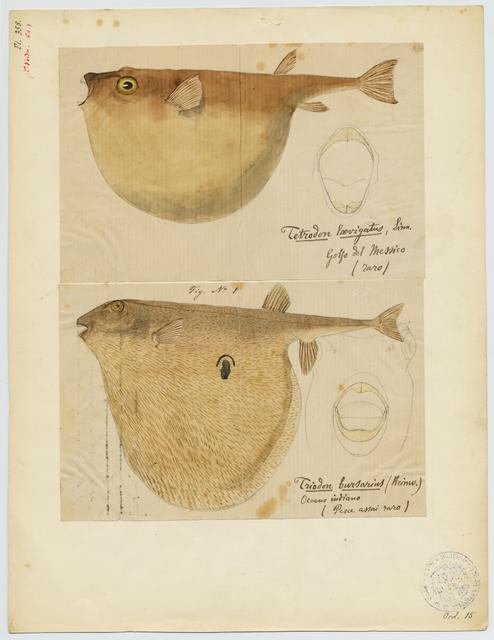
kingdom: Animalia
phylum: Chordata
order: Tetraodontiformes
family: Tetraodontidae
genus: Lagocephalus
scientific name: Lagocephalus laevigatus
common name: Puffer
